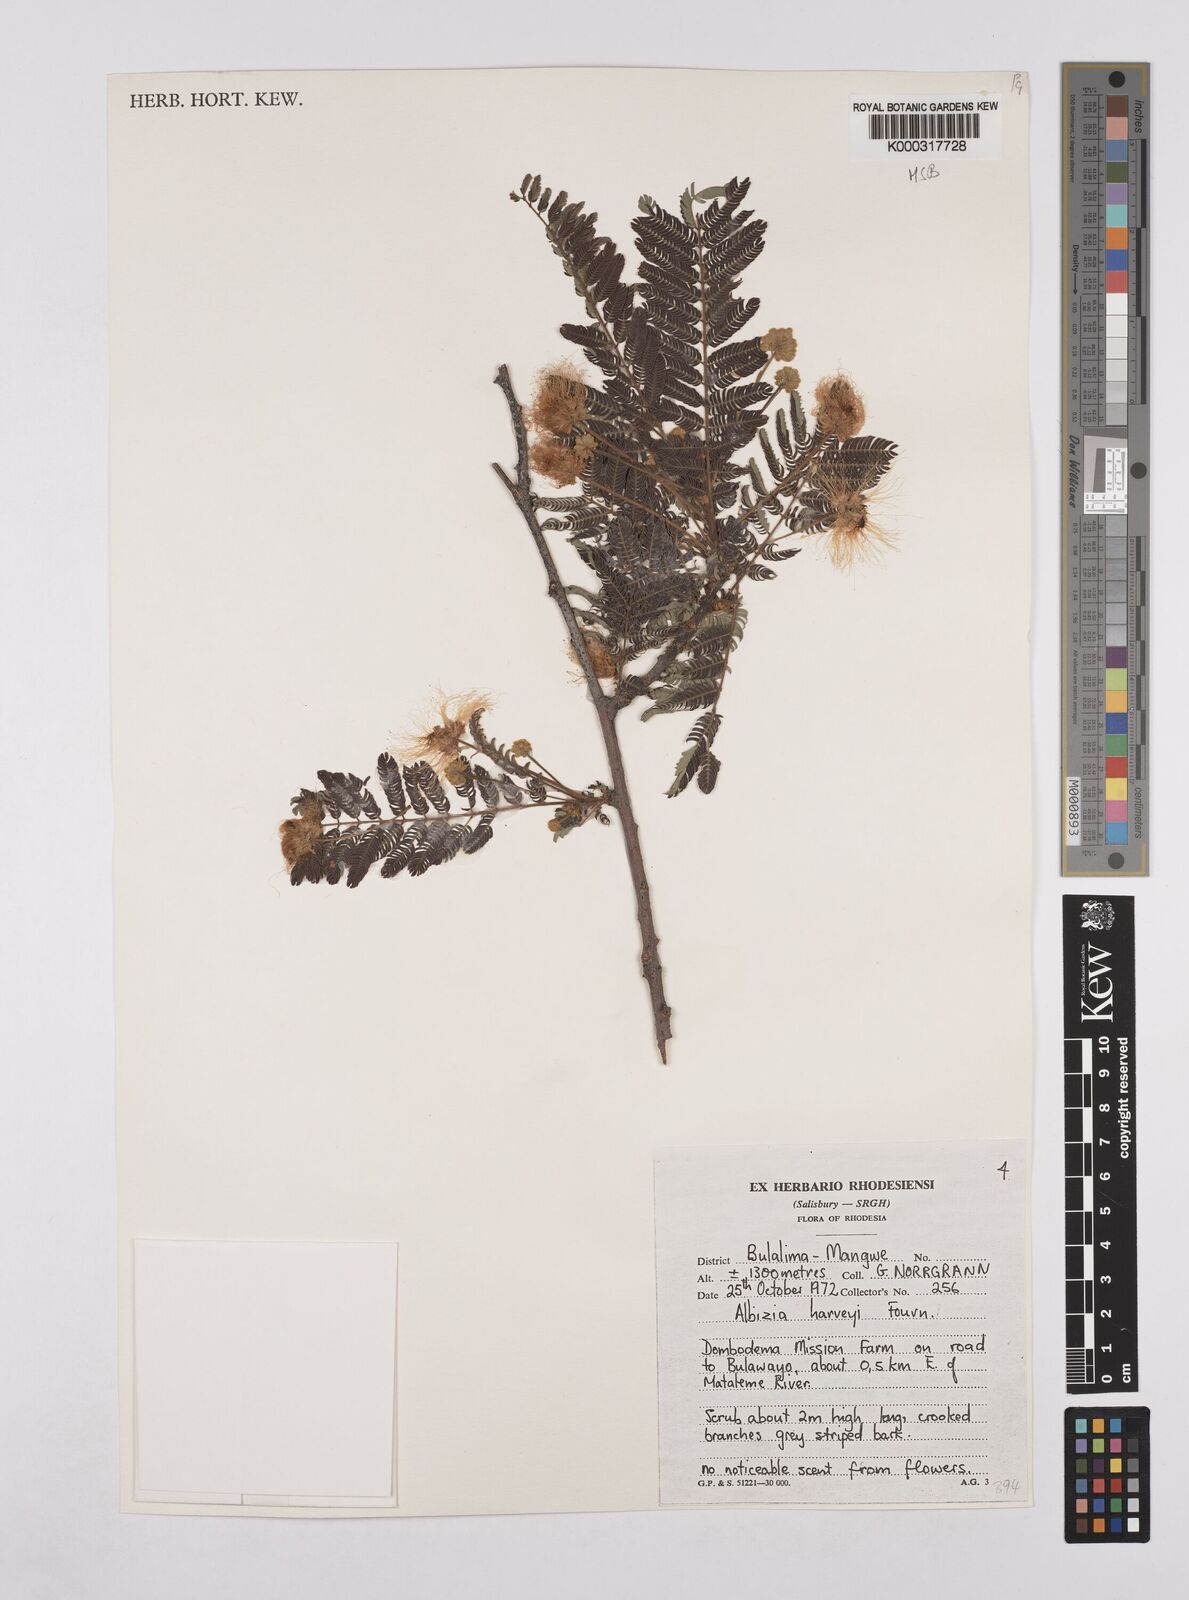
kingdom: Plantae
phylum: Tracheophyta
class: Magnoliopsida
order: Fabales
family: Fabaceae
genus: Albizia
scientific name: Albizia harveyi
